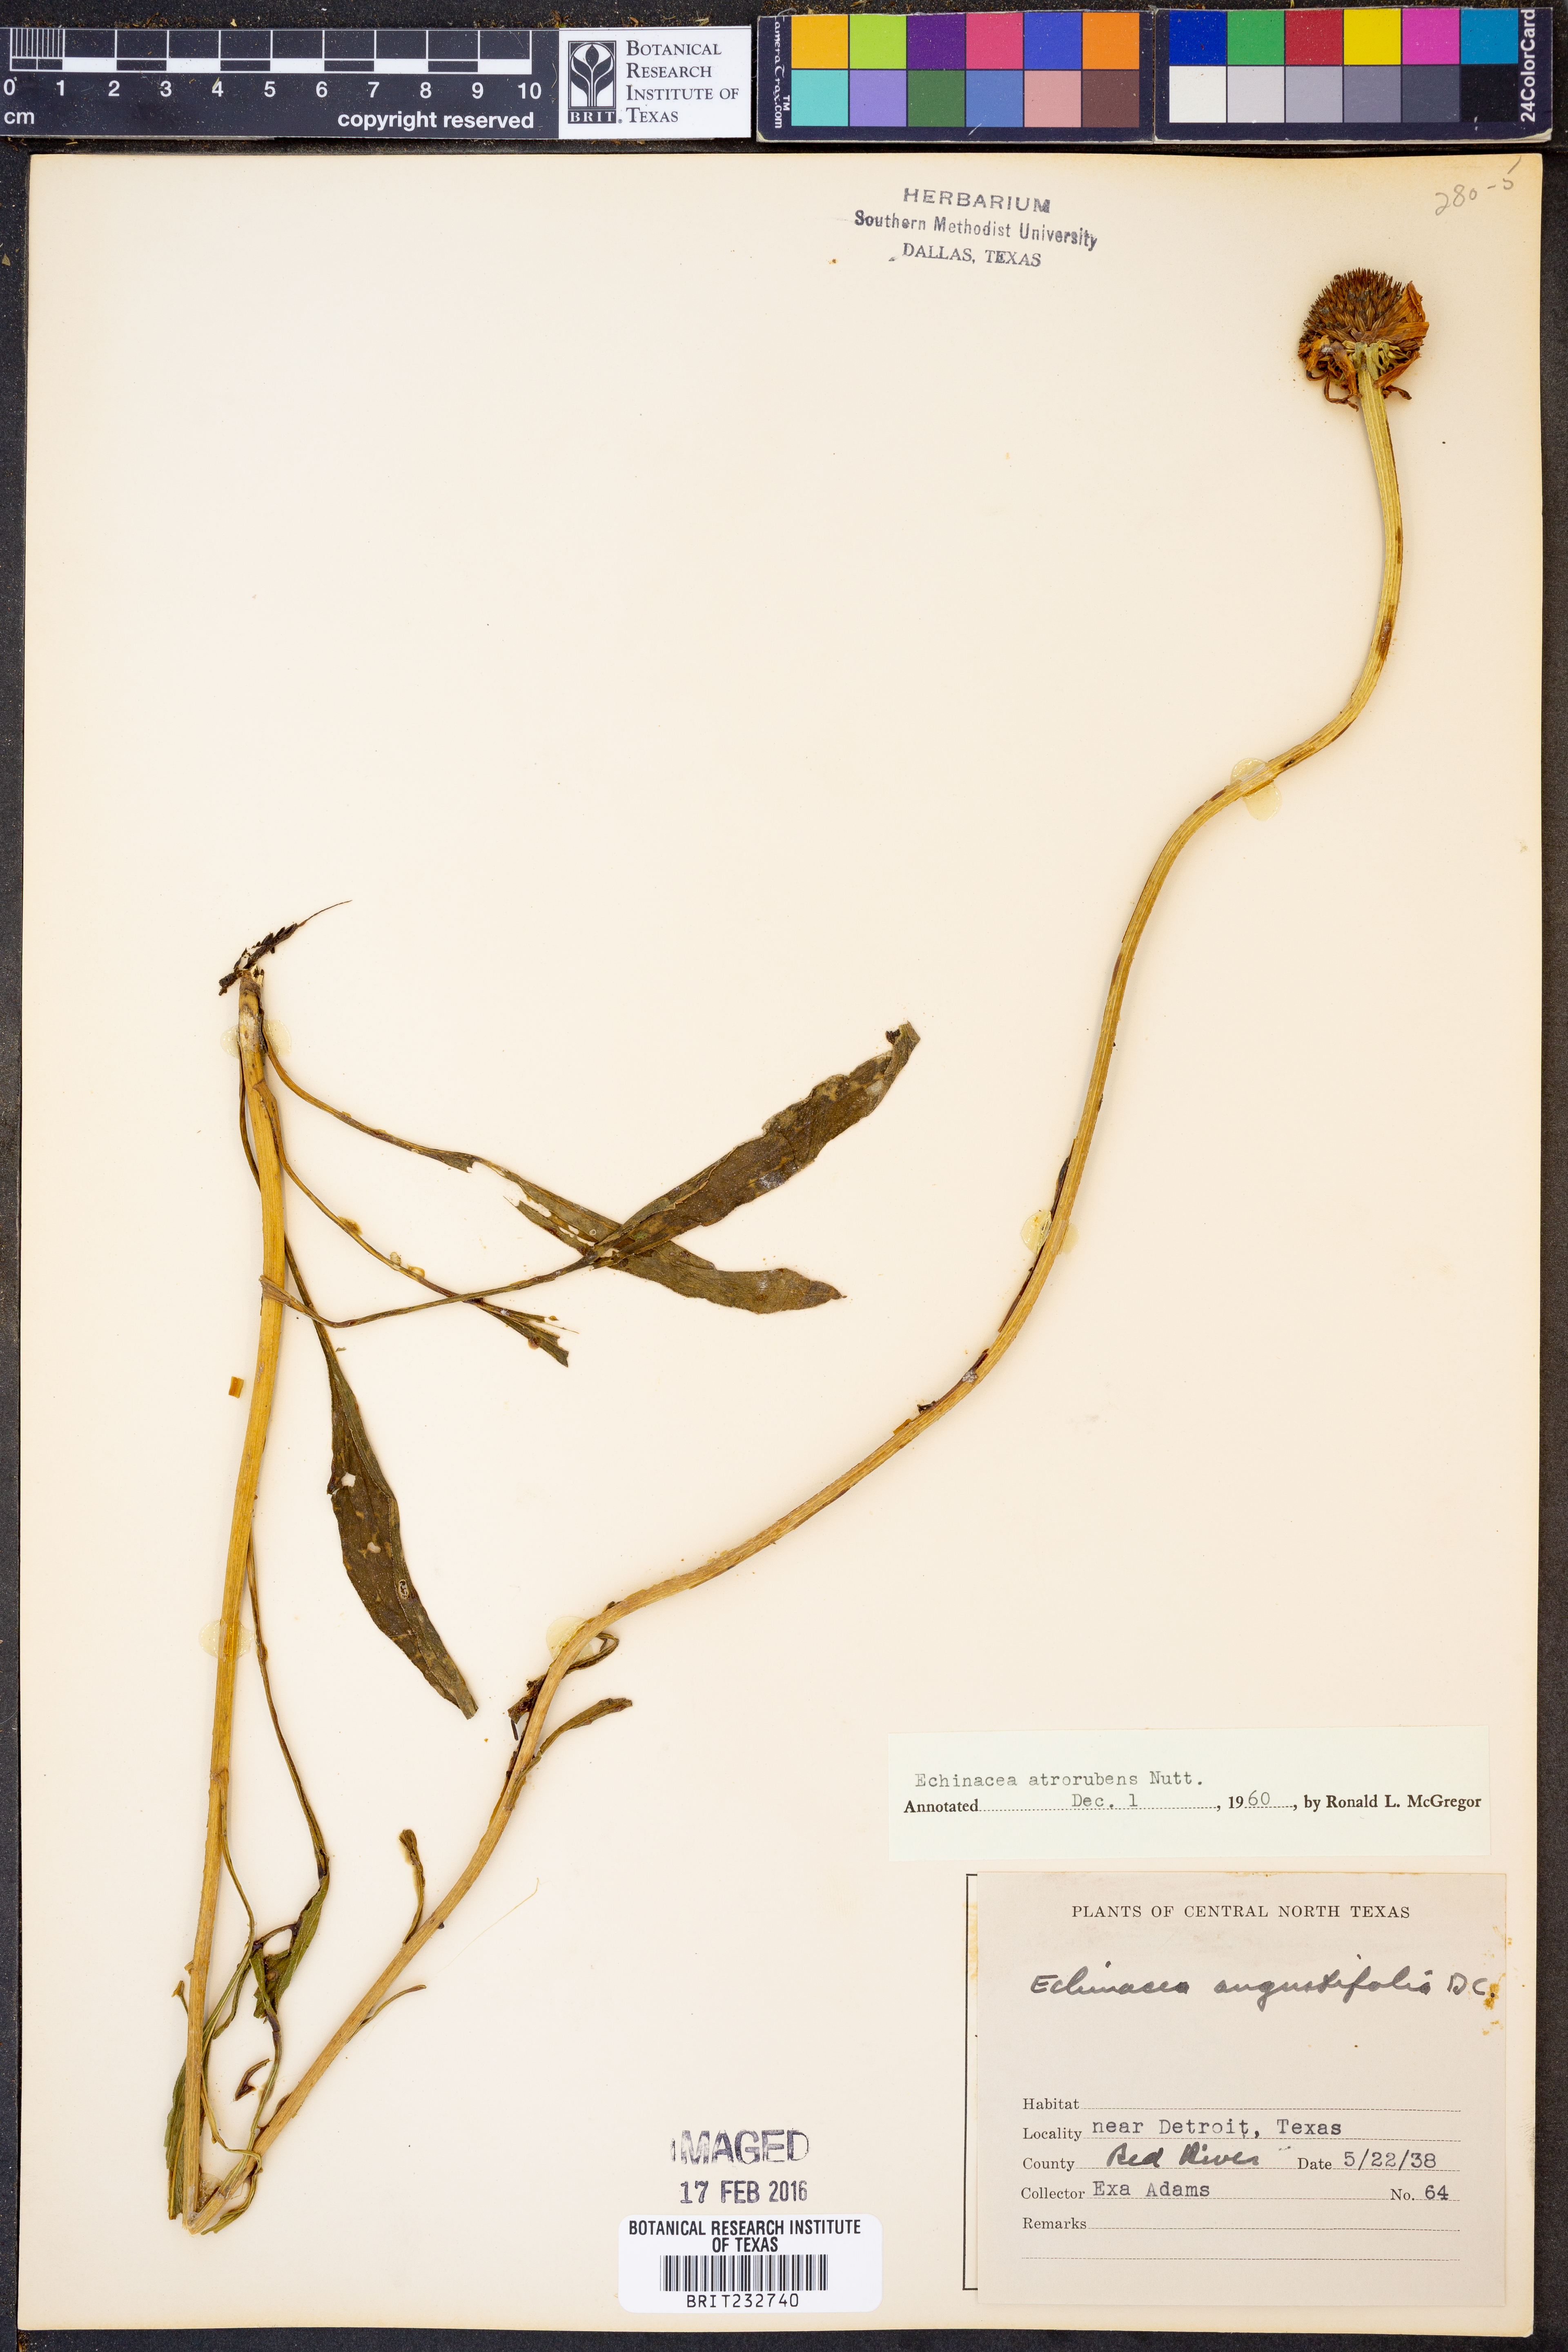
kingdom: Plantae
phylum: Tracheophyta
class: Magnoliopsida
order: Asterales
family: Asteraceae
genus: Echinacea
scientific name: Echinacea atrorubens
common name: Topeka purple-coneflower
